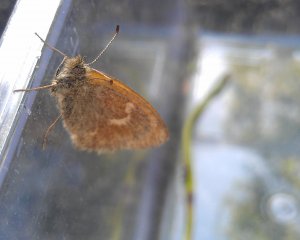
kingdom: Animalia
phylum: Arthropoda
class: Insecta
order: Lepidoptera
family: Nymphalidae
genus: Coenonympha
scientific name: Coenonympha tullia
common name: Large Heath
